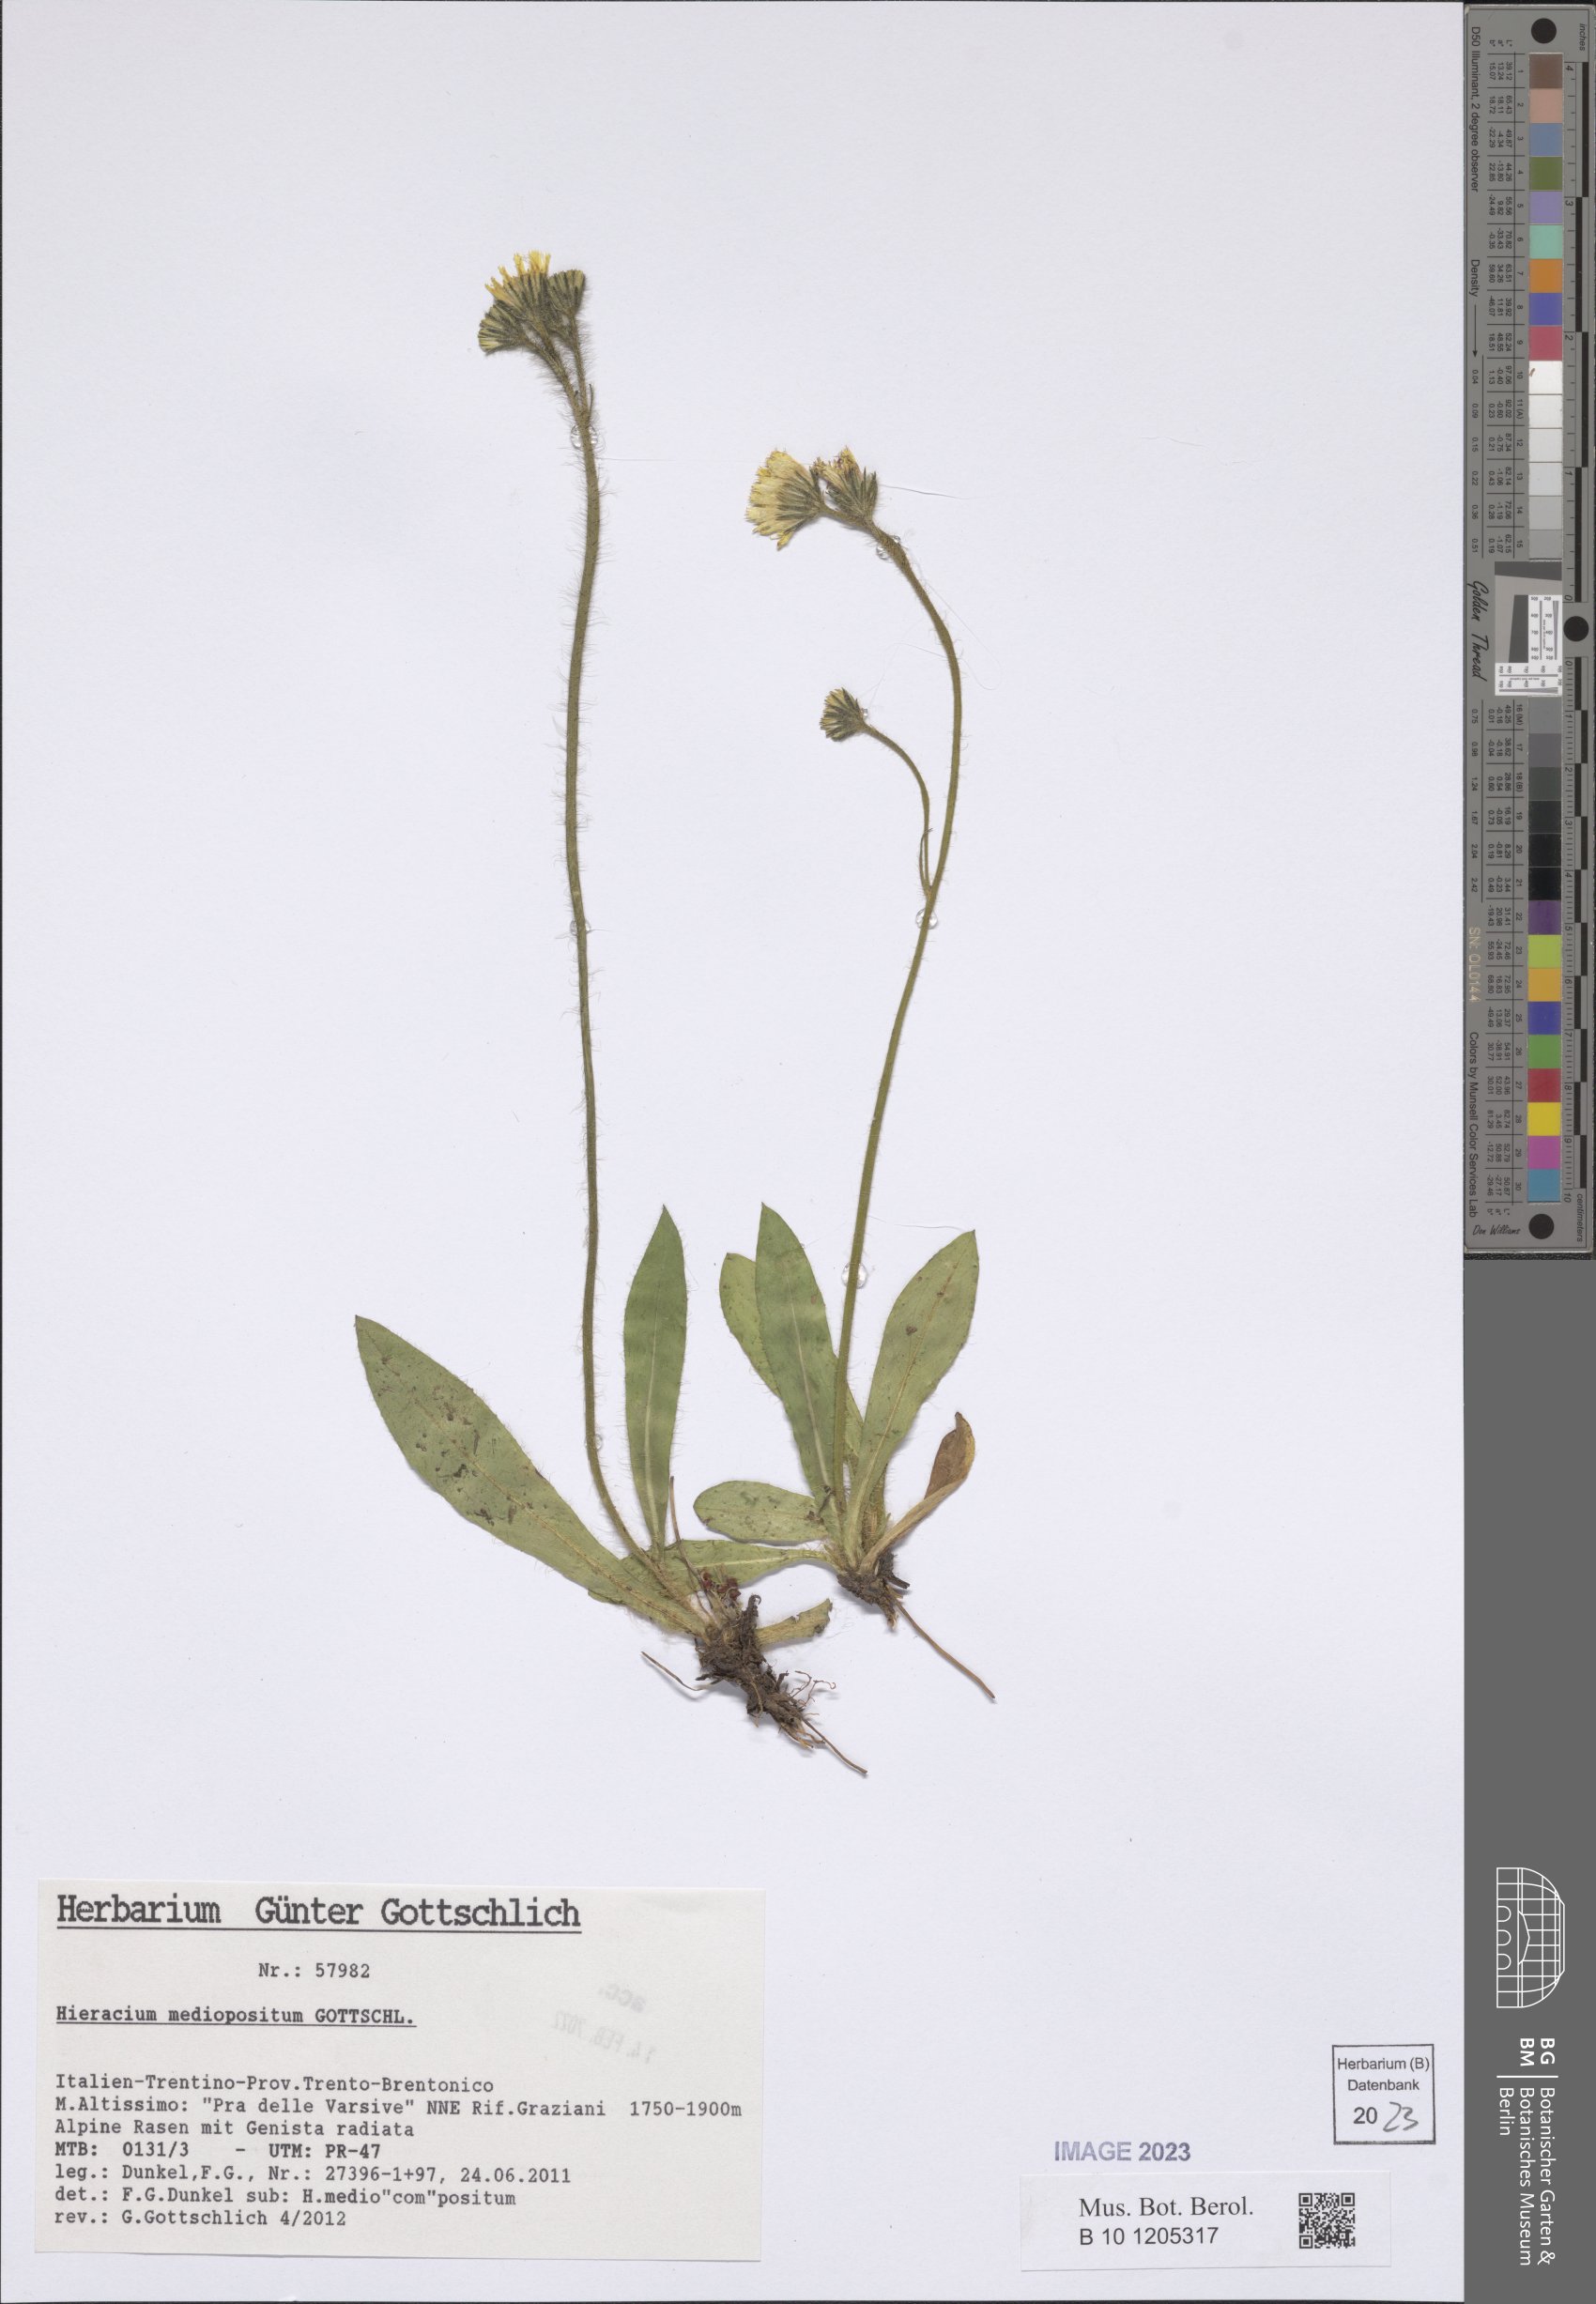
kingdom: Plantae
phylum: Tracheophyta
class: Magnoliopsida
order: Asterales
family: Asteraceae
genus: Pilosella
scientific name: Pilosella medioposita
